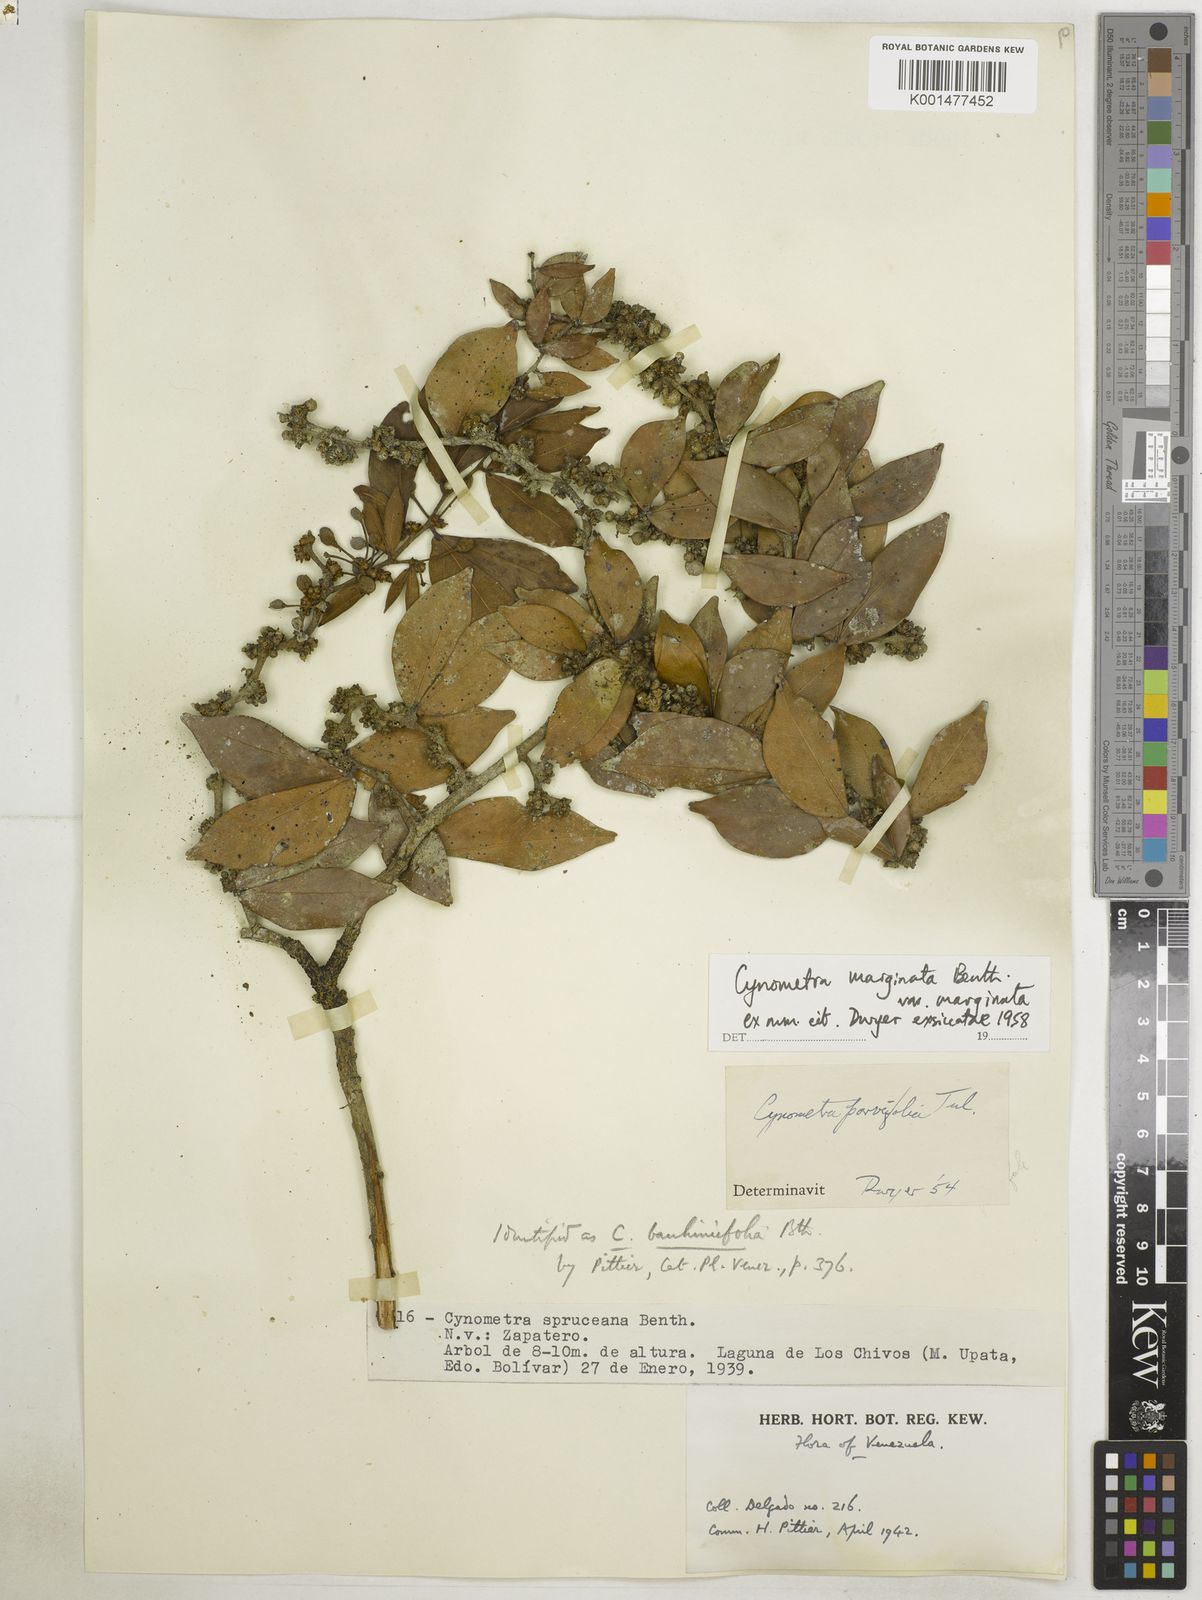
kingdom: Plantae
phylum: Tracheophyta
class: Magnoliopsida
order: Fabales
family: Fabaceae
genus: Cynometra
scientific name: Cynometra parvifolia
